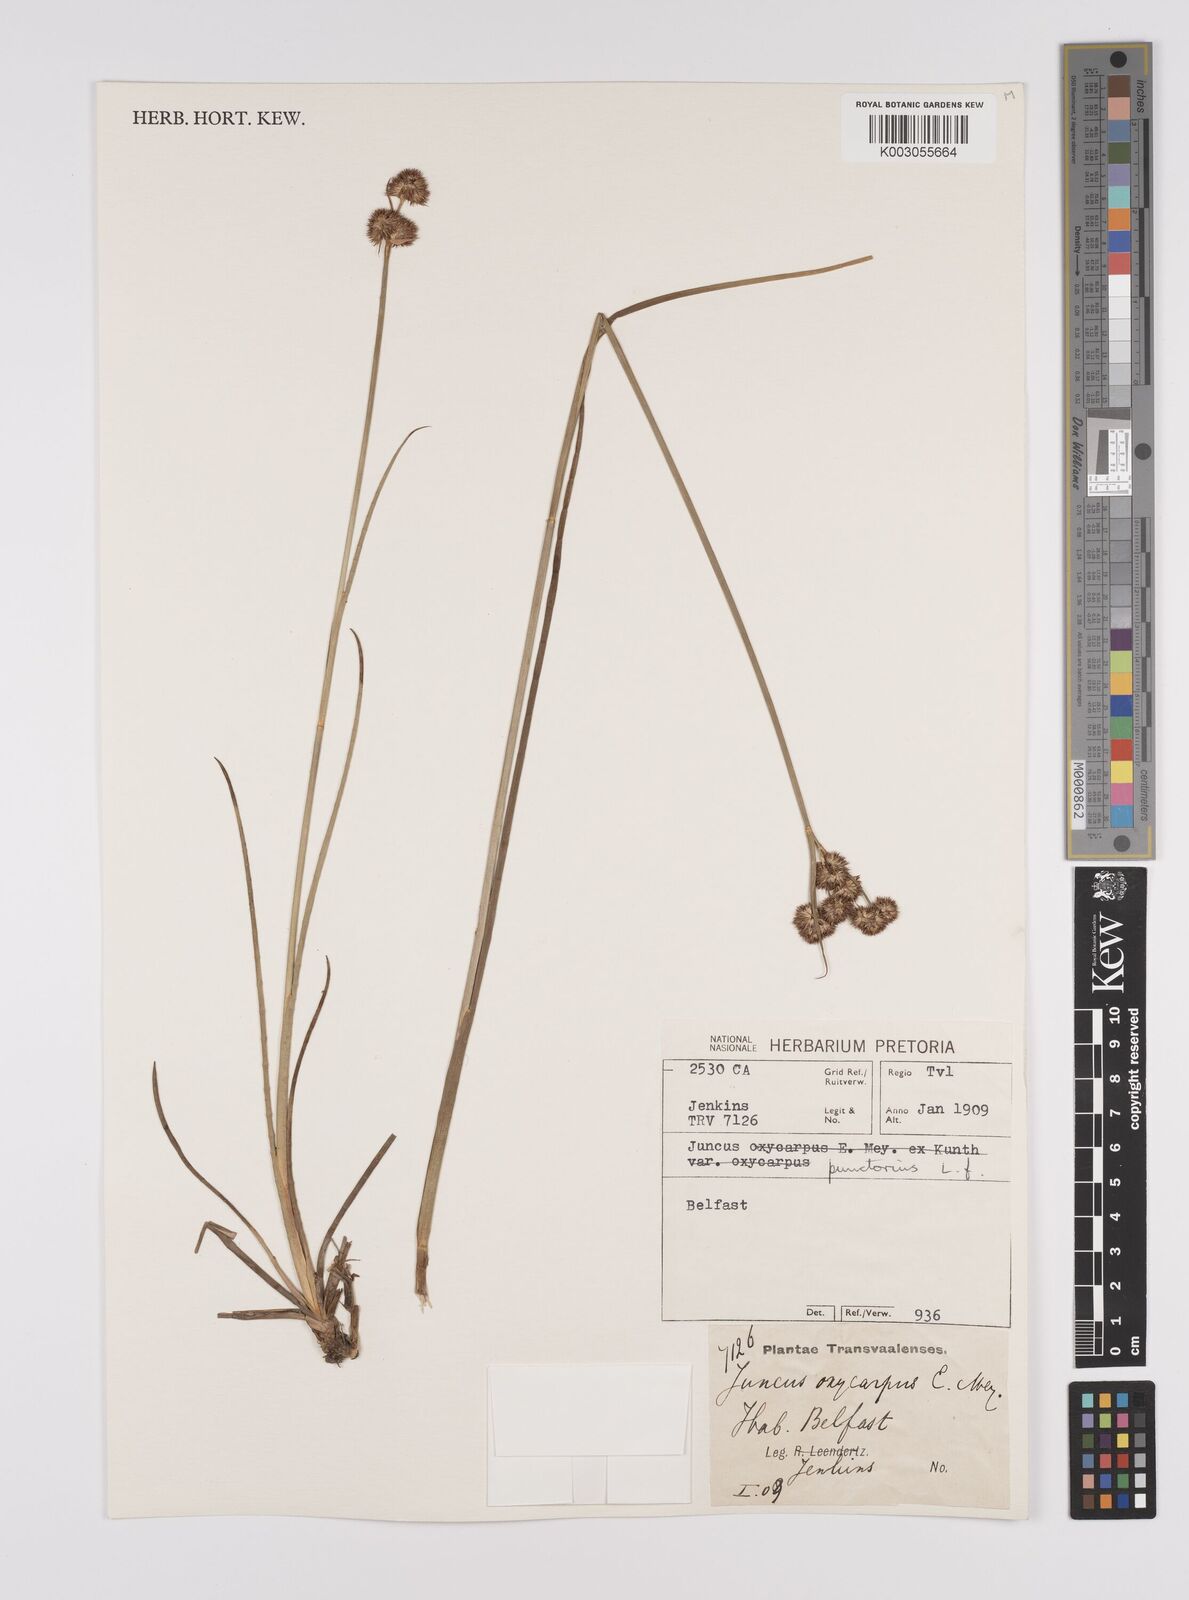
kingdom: Plantae
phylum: Tracheophyta
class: Liliopsida
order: Poales
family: Juncaceae
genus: Juncus
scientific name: Juncus punctorius
